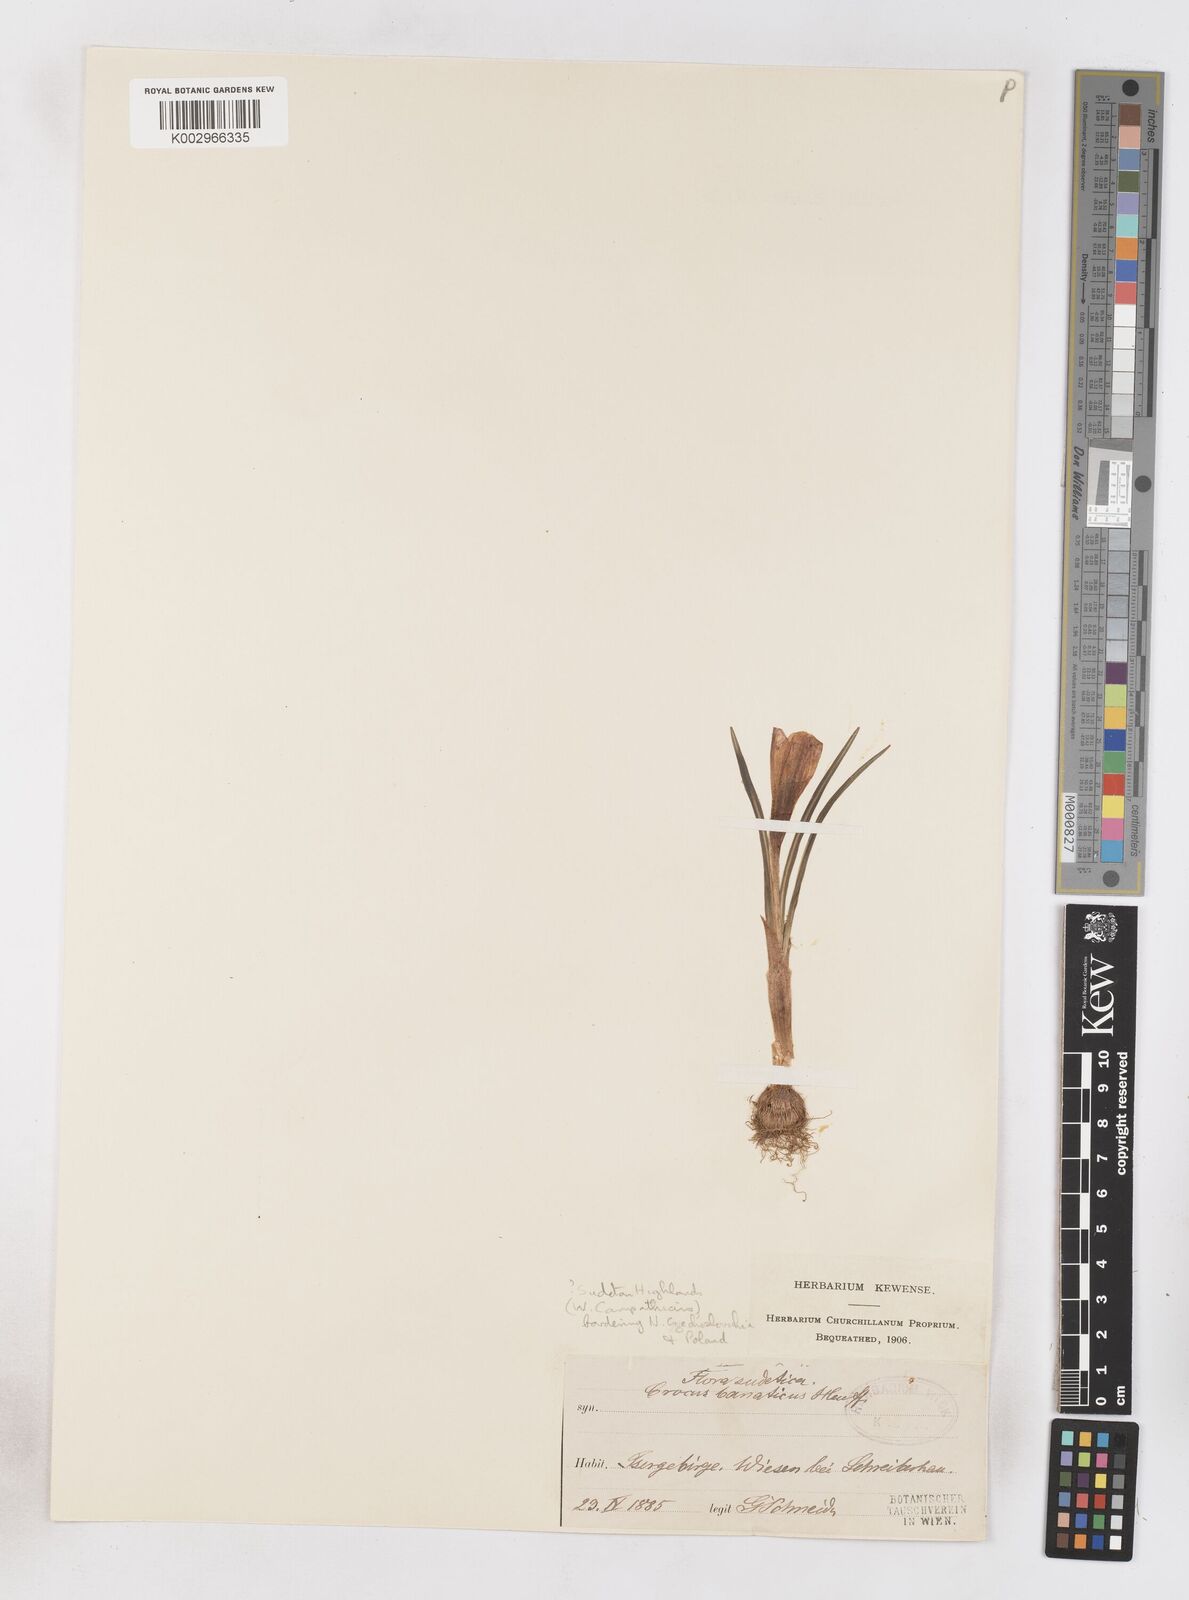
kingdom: Plantae
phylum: Tracheophyta
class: Liliopsida
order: Asparagales
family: Iridaceae
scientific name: Iridaceae
